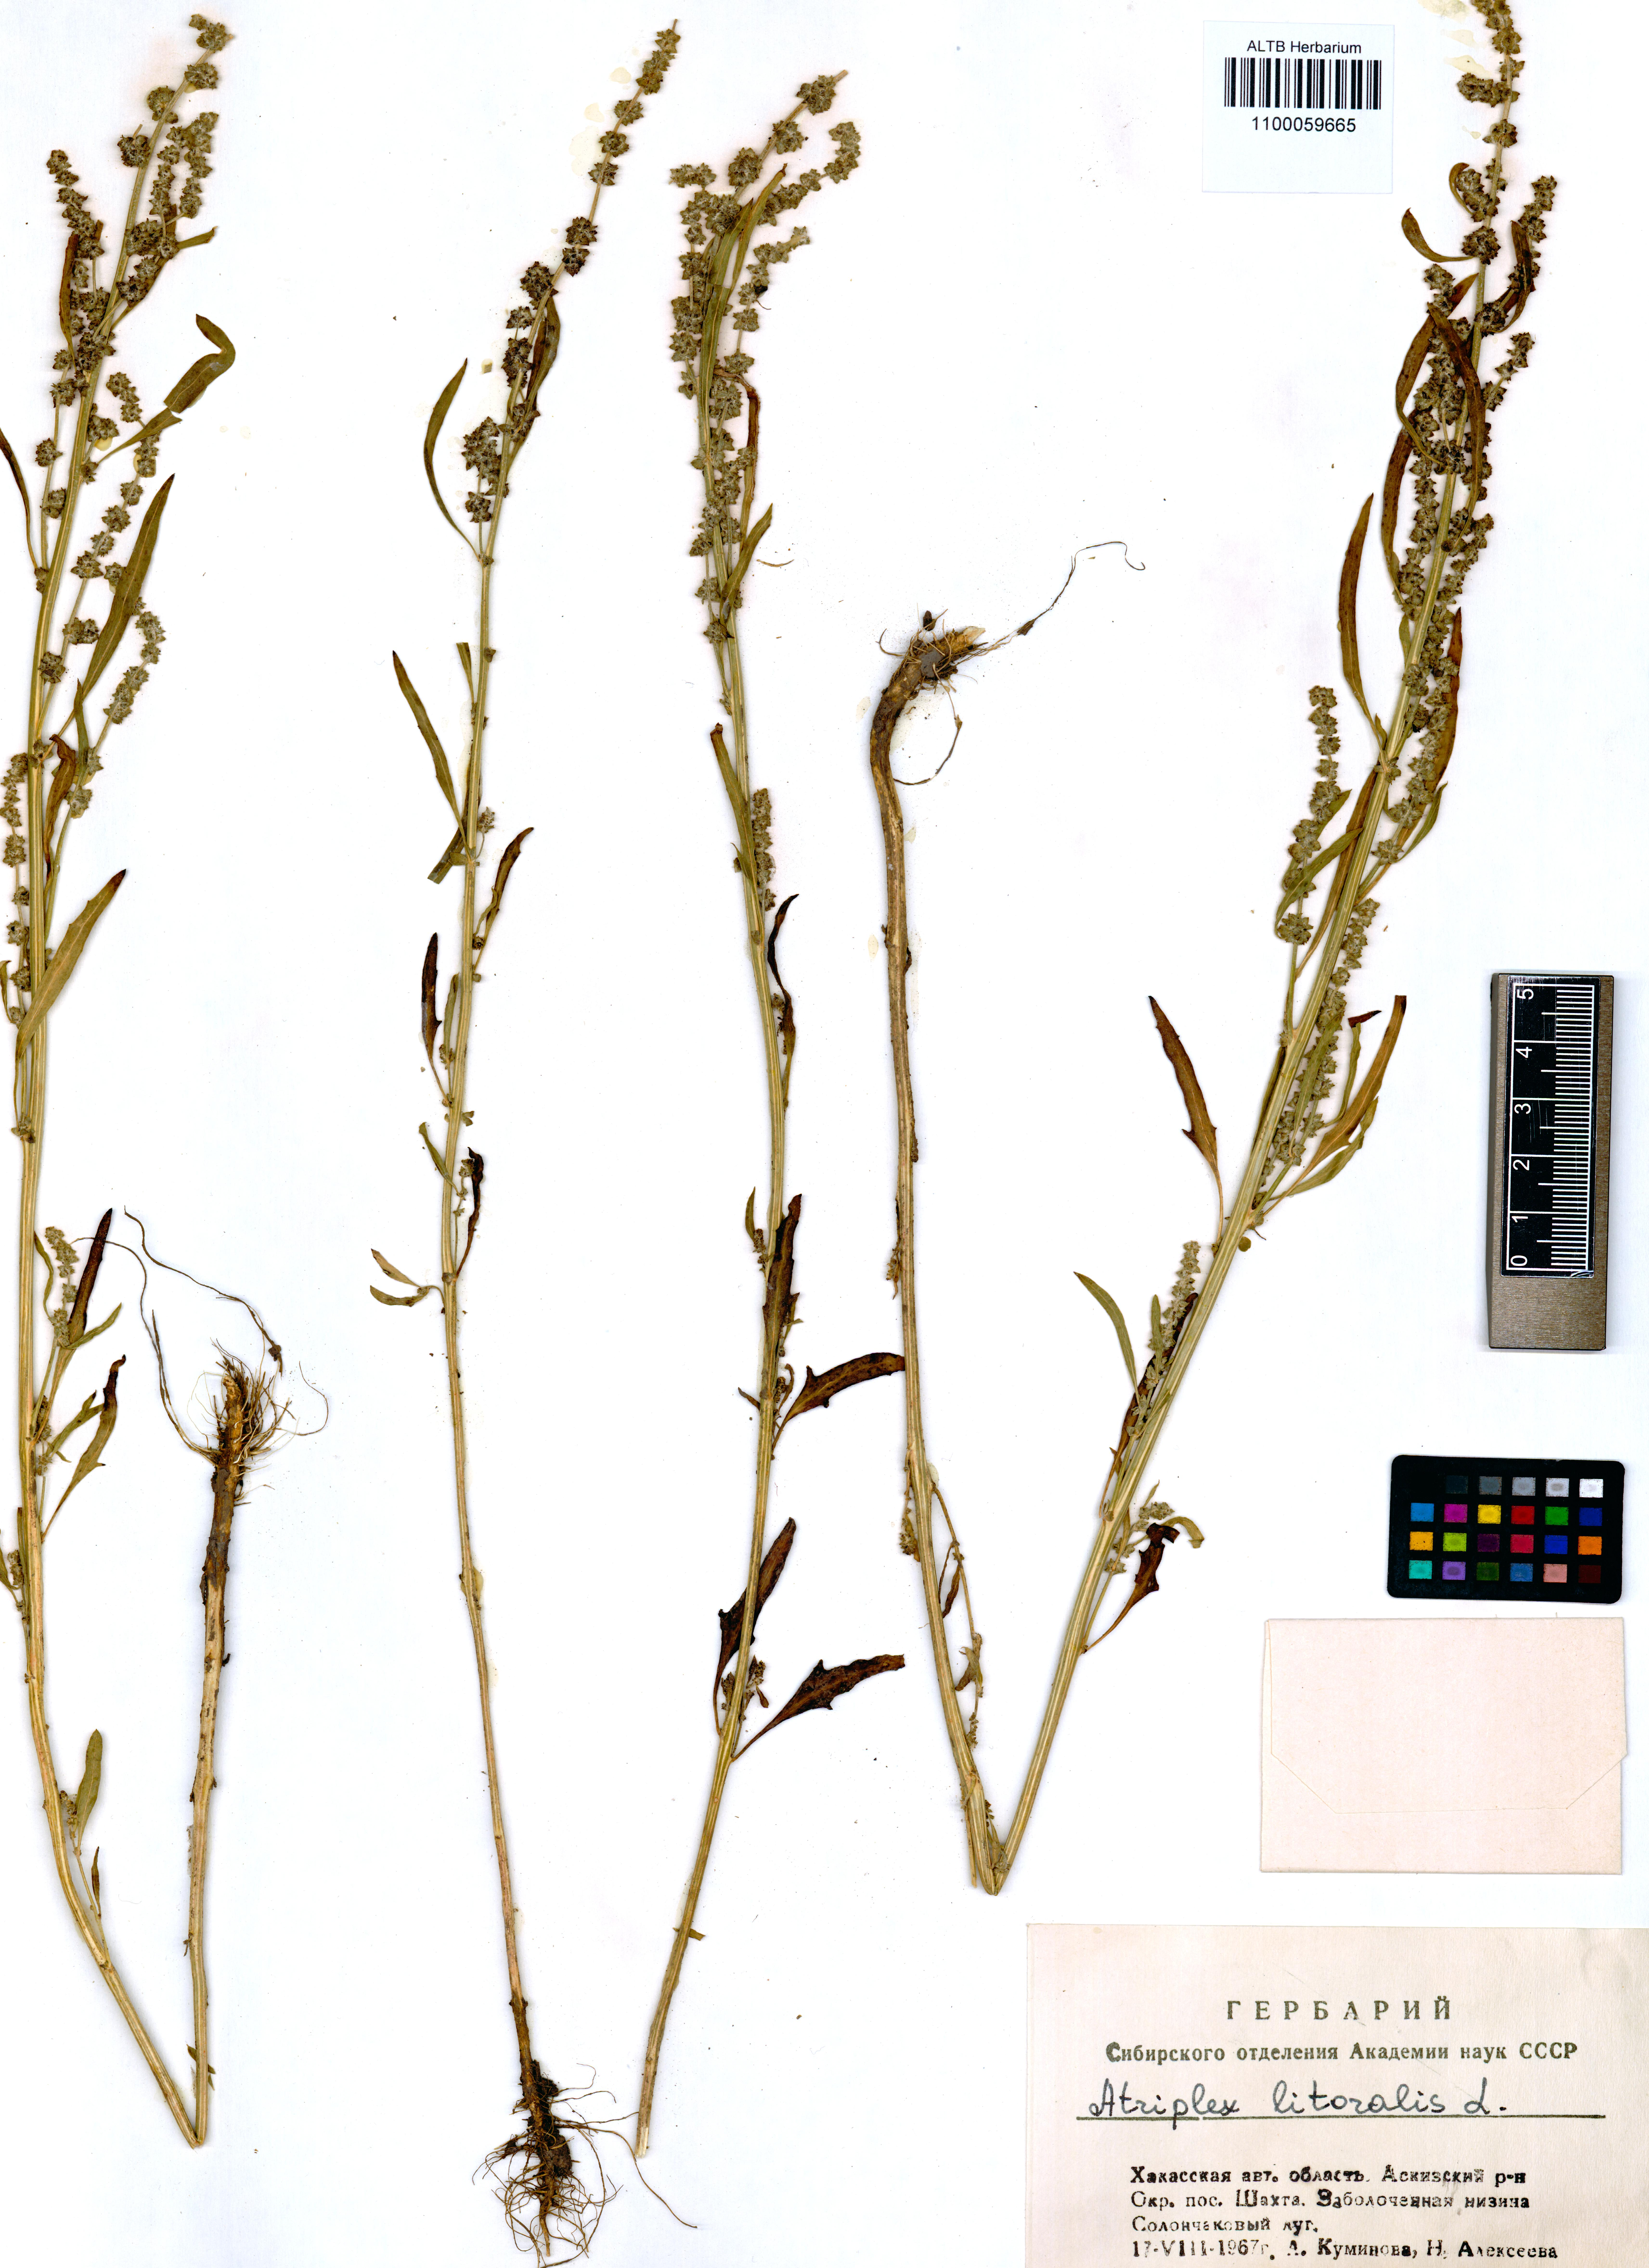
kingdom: Plantae
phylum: Tracheophyta
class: Magnoliopsida
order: Caryophyllales
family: Amaranthaceae
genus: Atriplex
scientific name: Atriplex littoralis
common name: Grass-leaved orache
